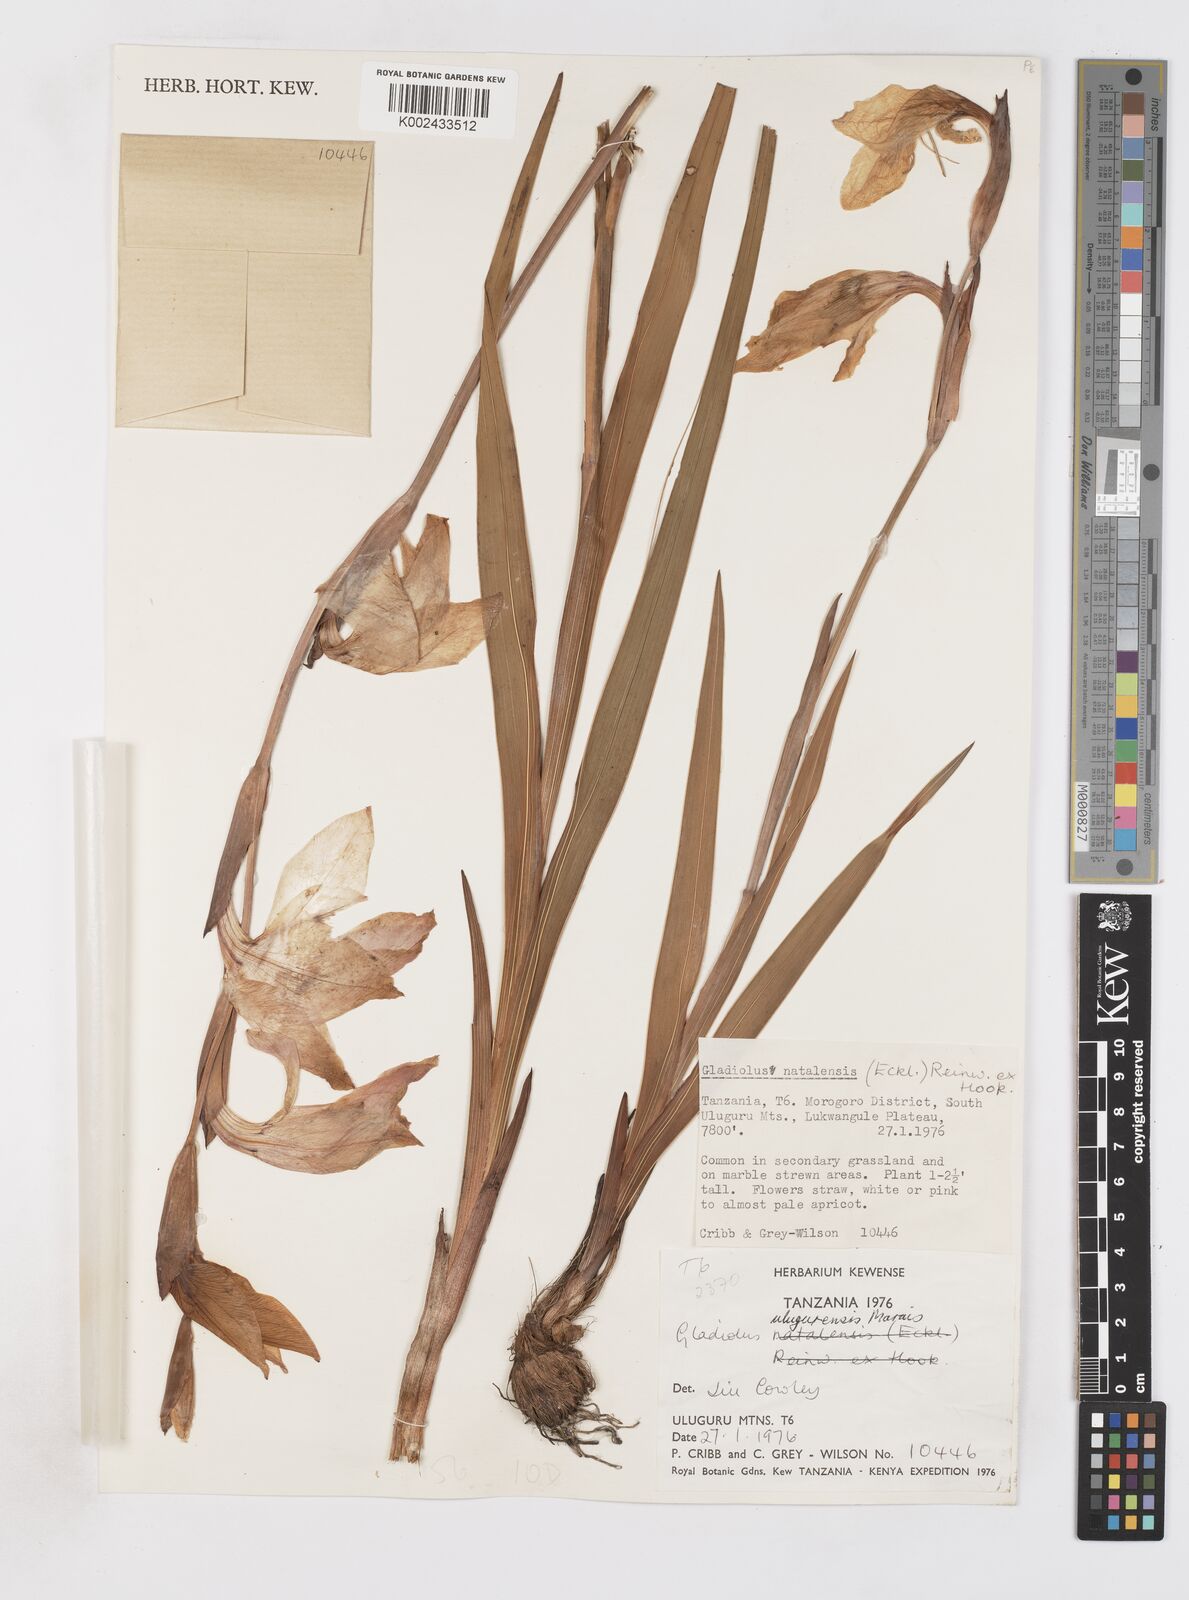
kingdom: Plantae
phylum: Tracheophyta
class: Liliopsida
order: Asparagales
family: Iridaceae
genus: Gladiolus
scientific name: Gladiolus dalenii
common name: Cornflag
